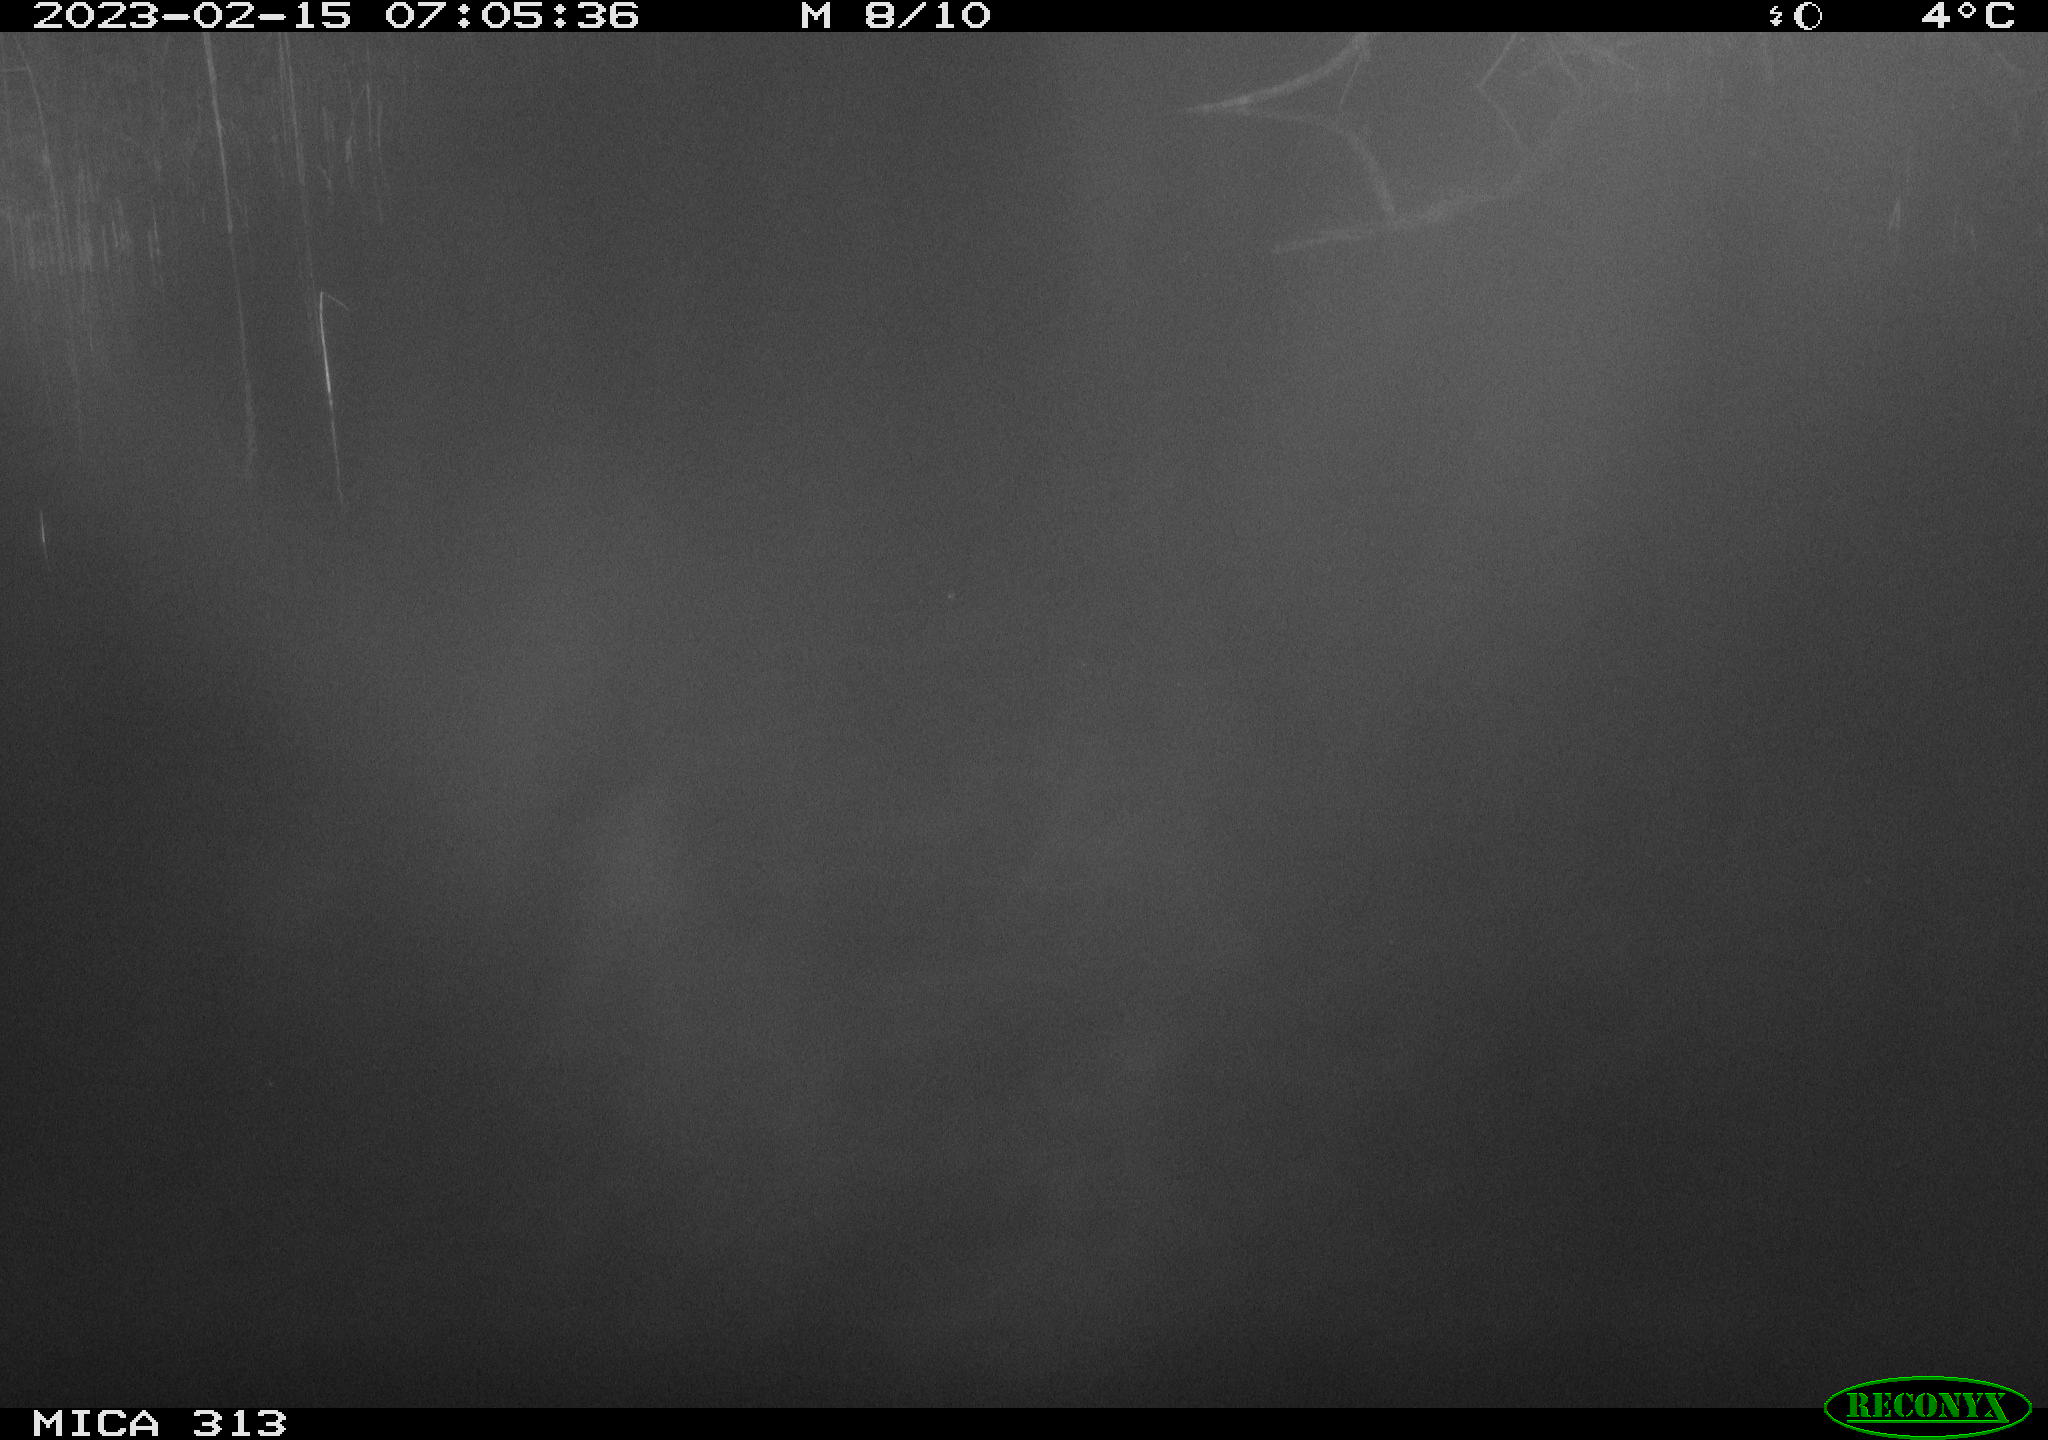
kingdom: Animalia
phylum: Chordata
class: Aves
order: Gruiformes
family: Rallidae
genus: Gallinula
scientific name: Gallinula chloropus
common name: Common moorhen
